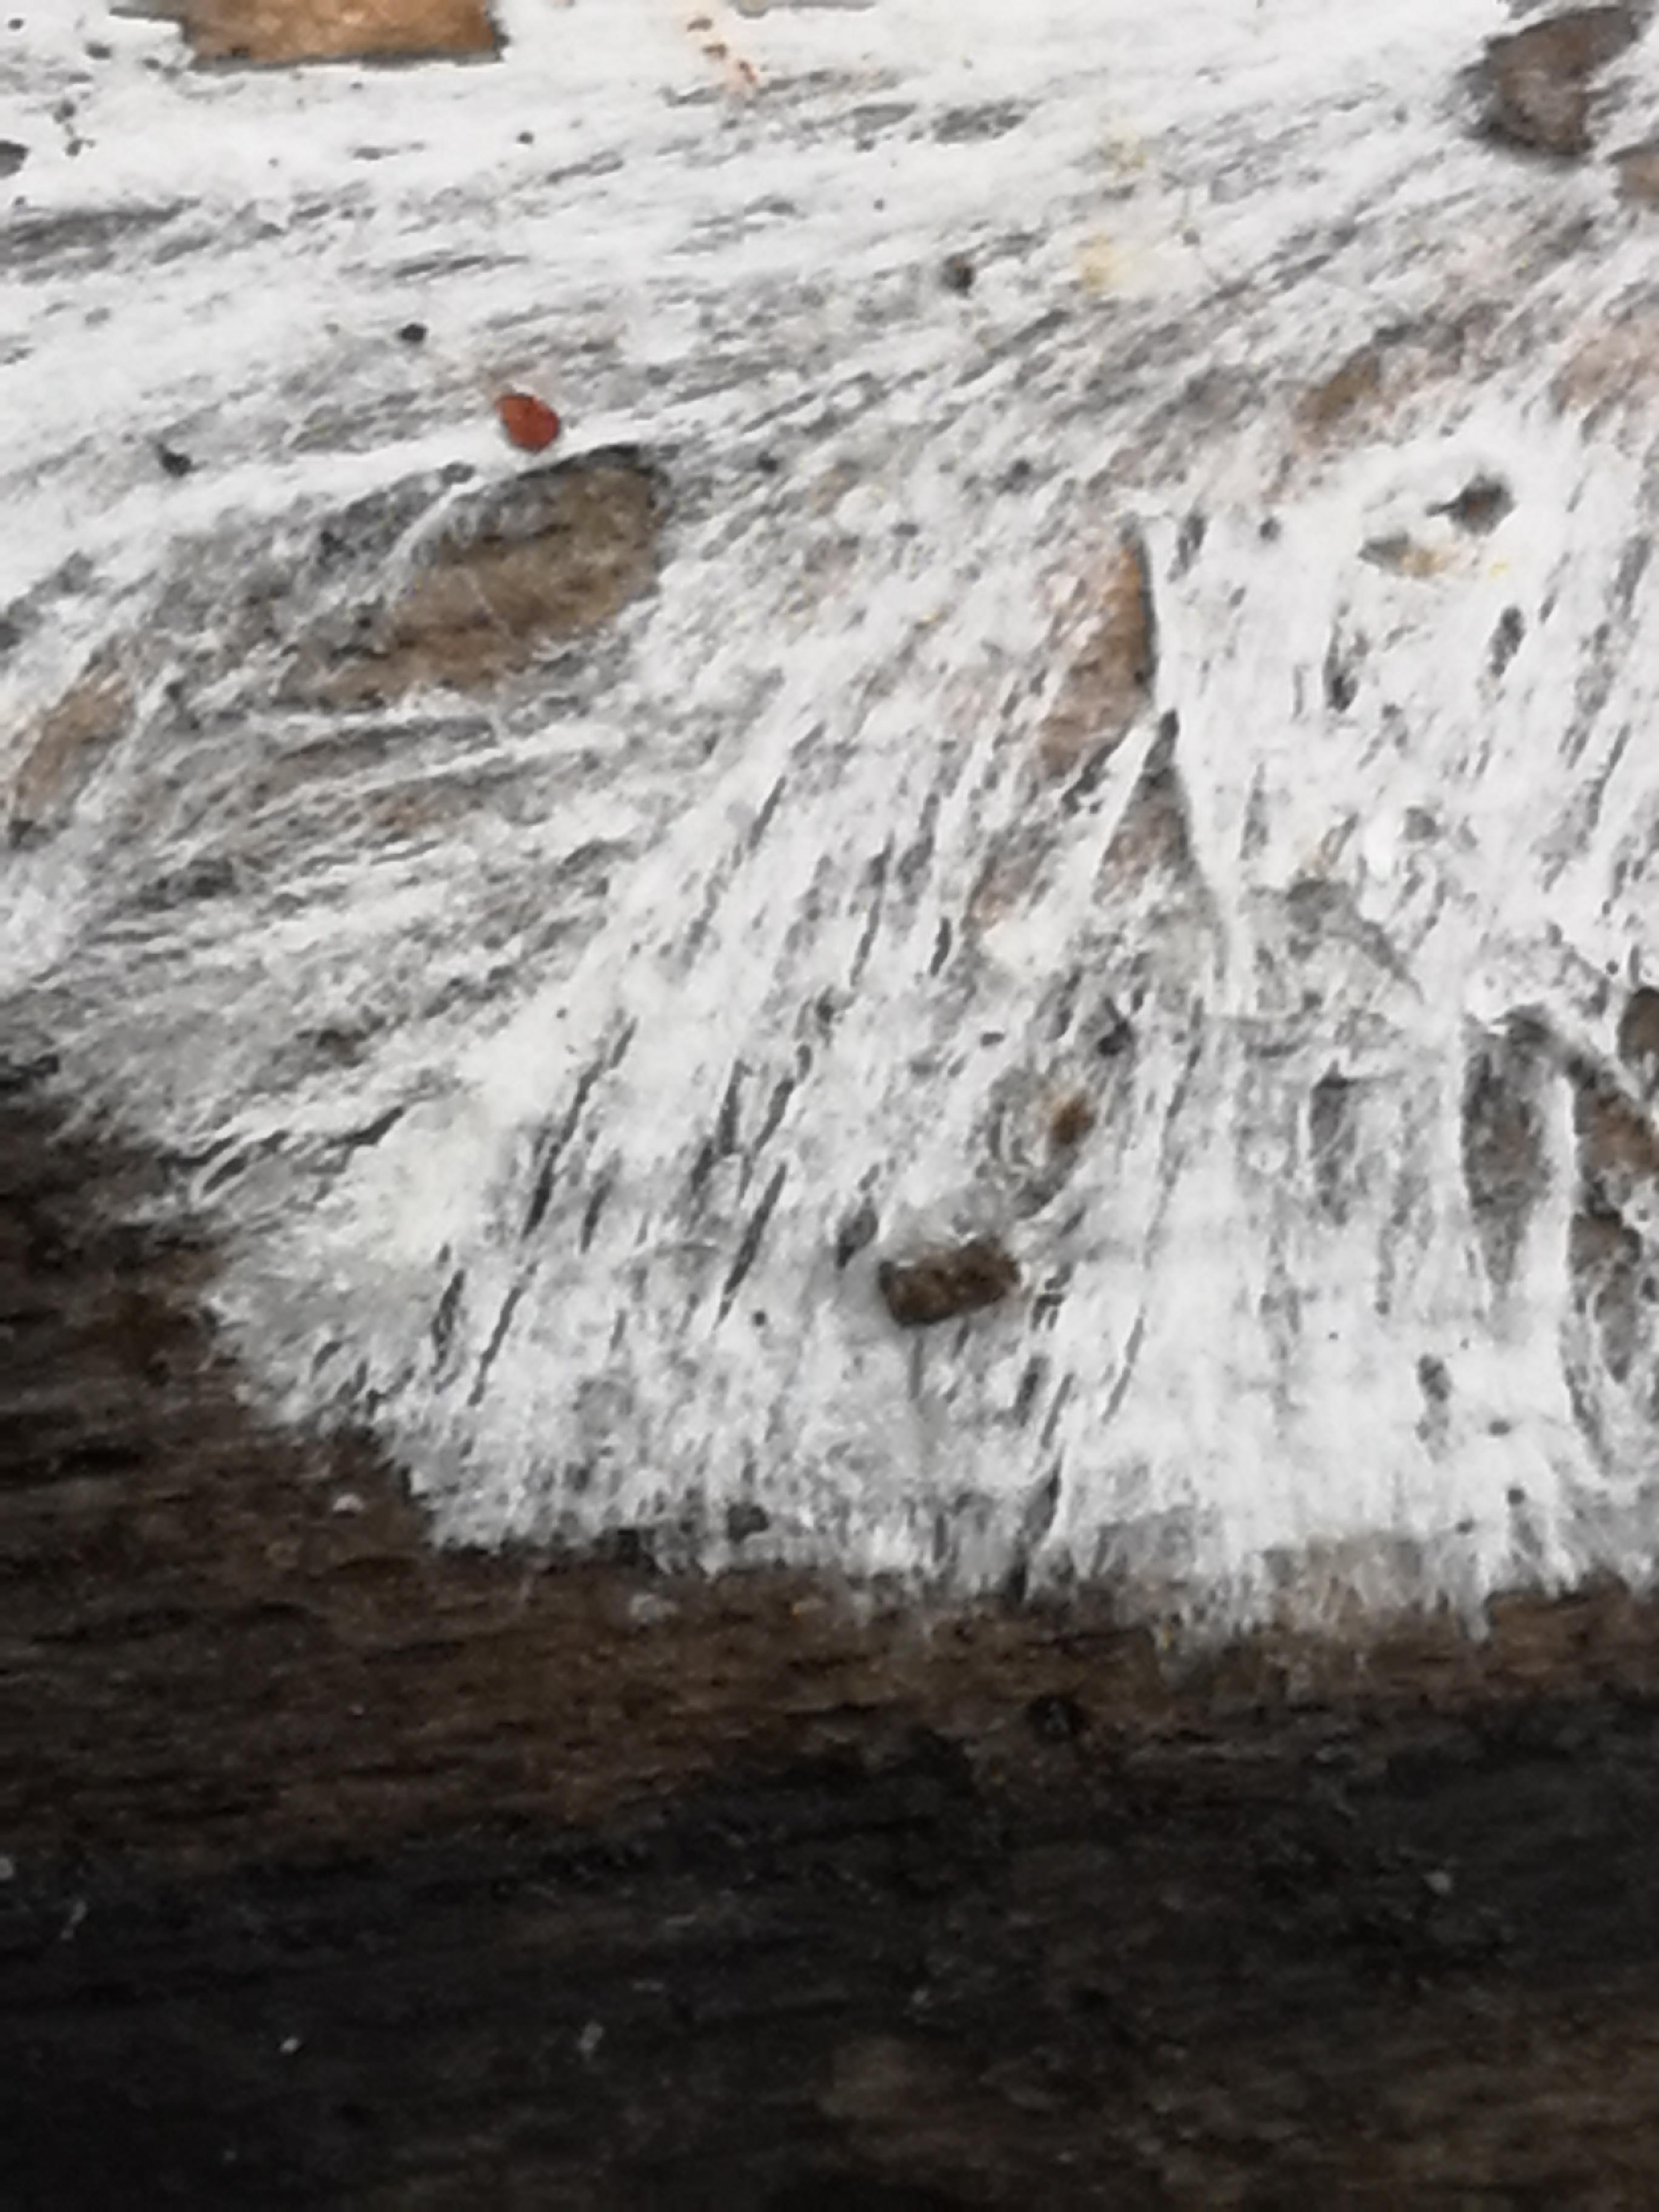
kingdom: Fungi
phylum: Basidiomycota
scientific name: Basidiomycota
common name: basidiesvampe
